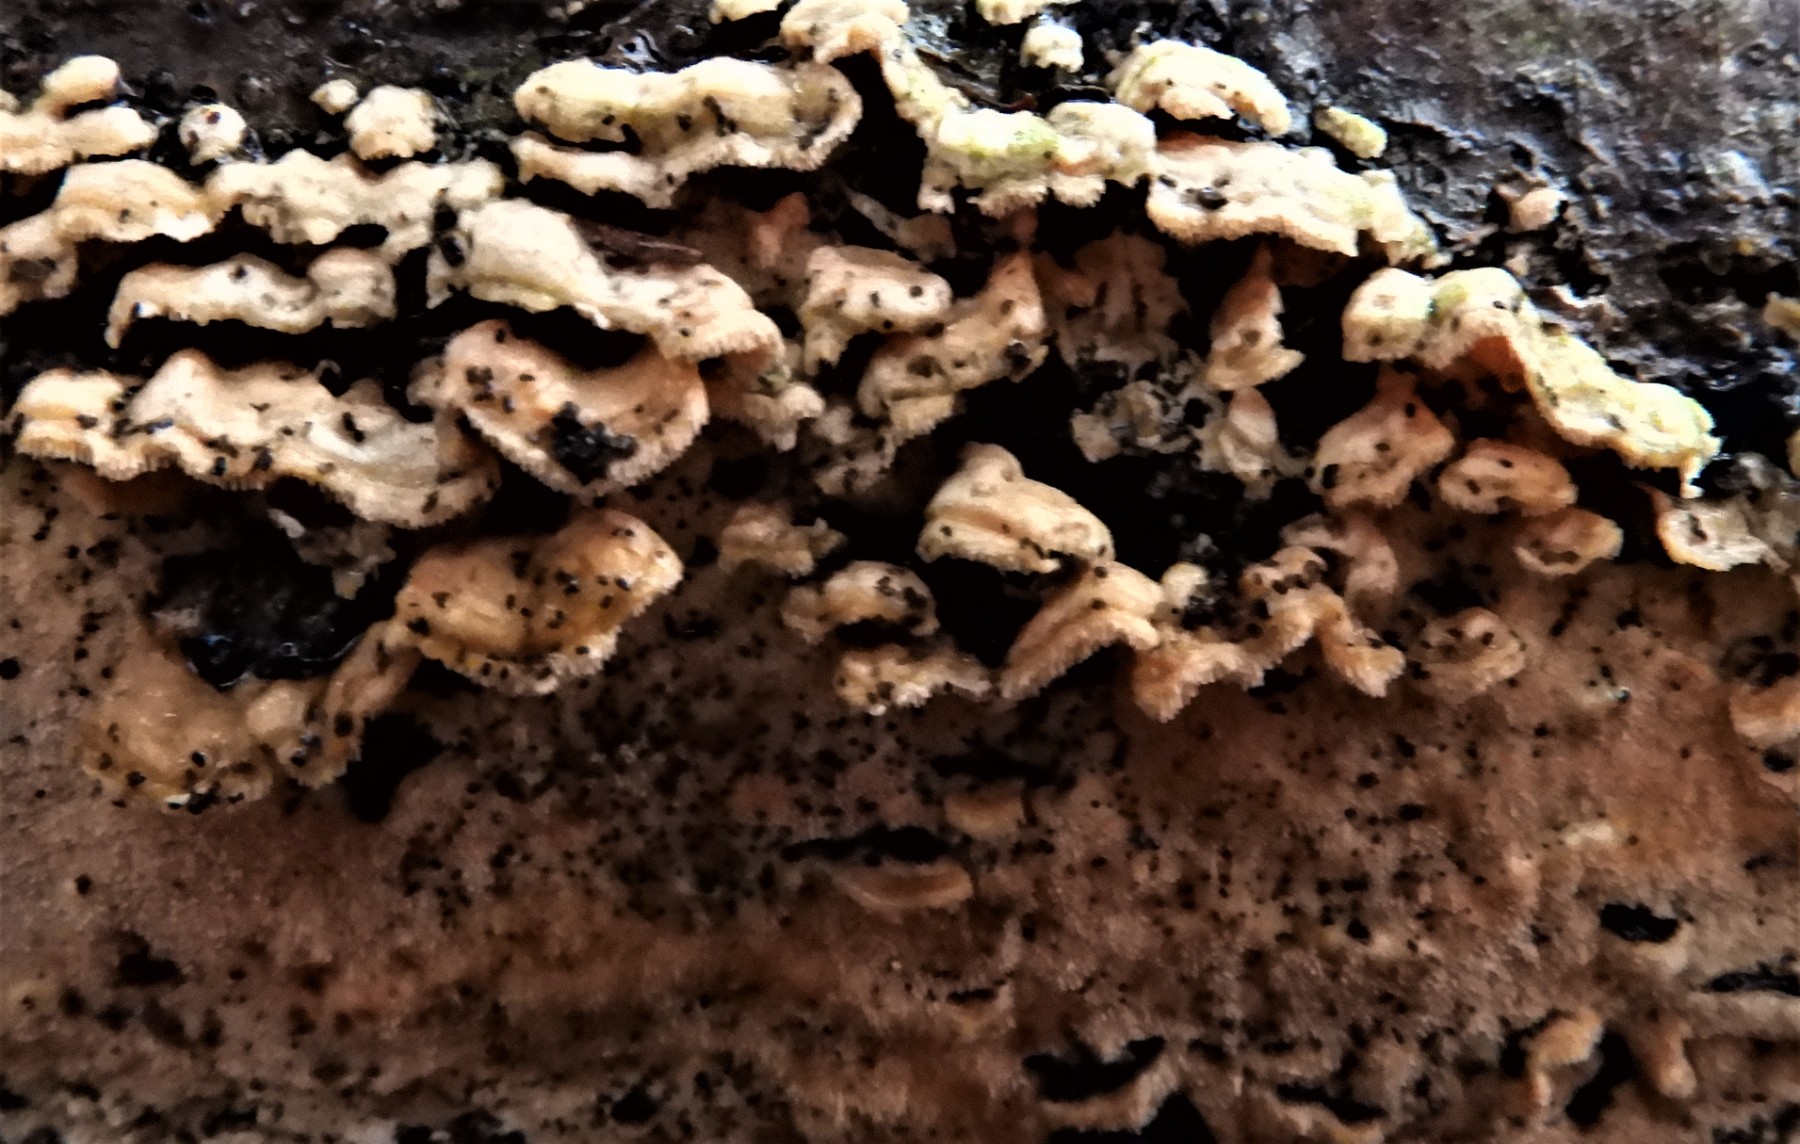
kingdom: Fungi
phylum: Basidiomycota
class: Agaricomycetes
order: Polyporales
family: Steccherinaceae
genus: Steccherinum
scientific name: Steccherinum bourdotii
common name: hat-skønpig
